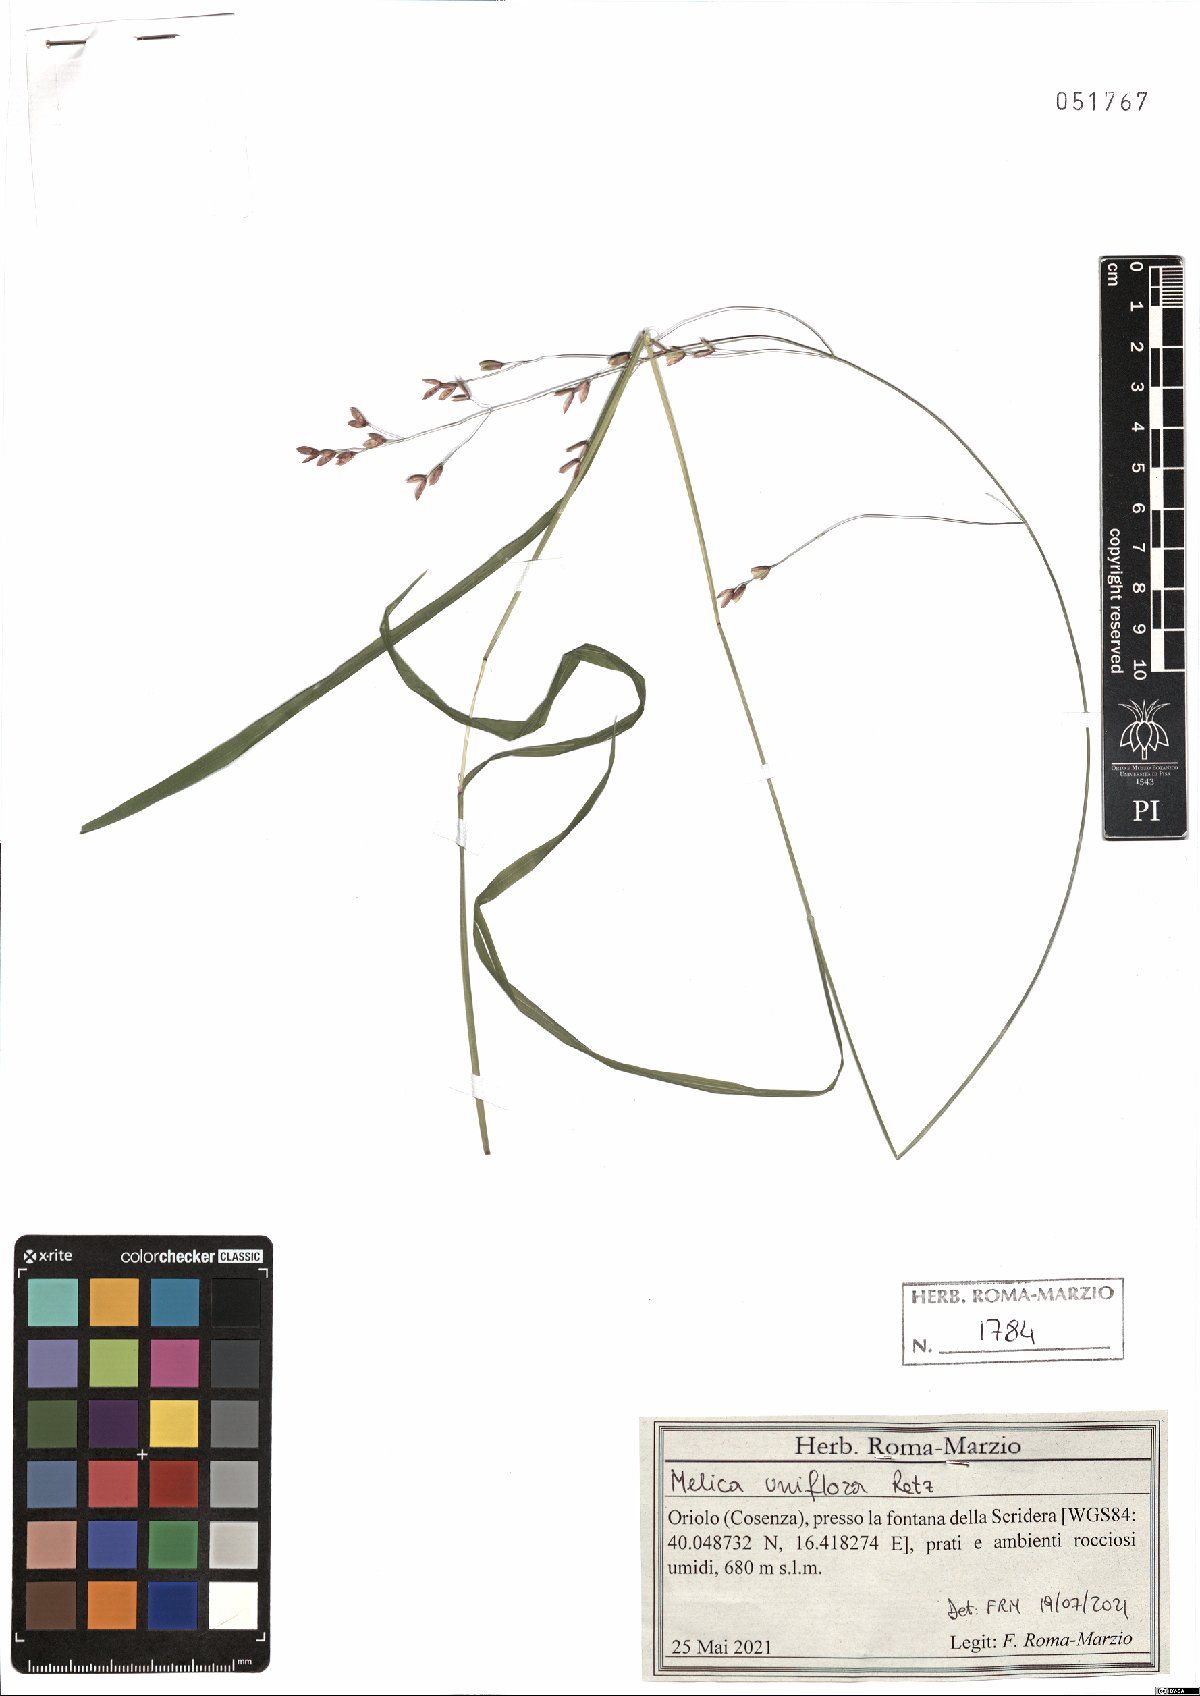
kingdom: Plantae
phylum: Tracheophyta
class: Liliopsida
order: Poales
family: Poaceae
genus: Melica
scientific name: Melica uniflora
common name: Wood melick
